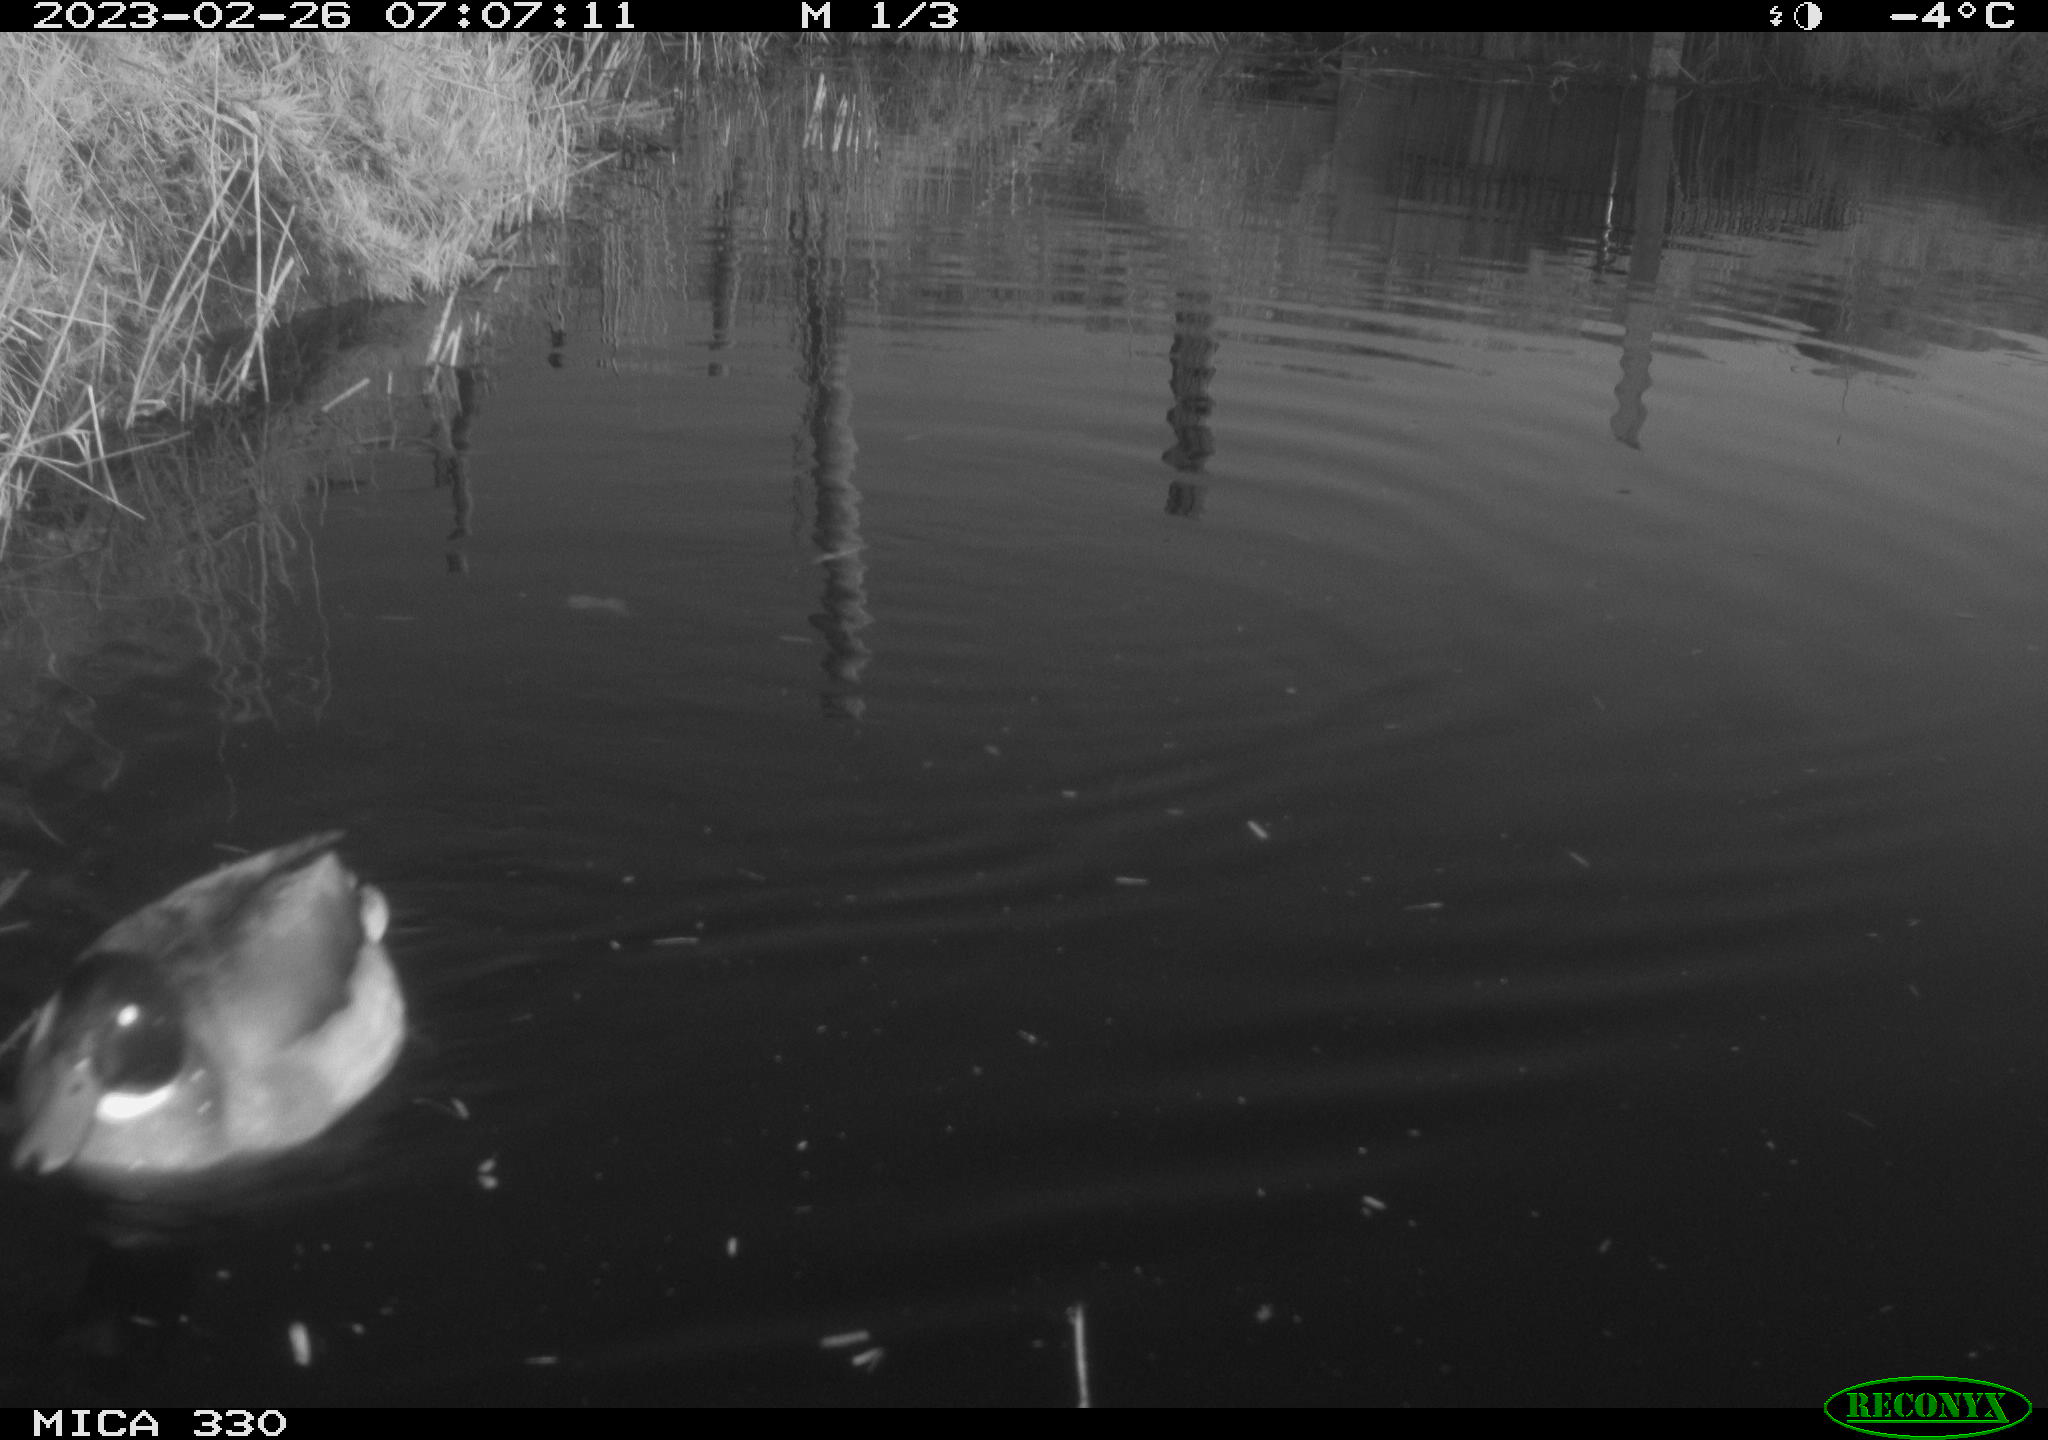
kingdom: Animalia
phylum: Chordata
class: Aves
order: Anseriformes
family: Anatidae
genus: Anas
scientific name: Anas
